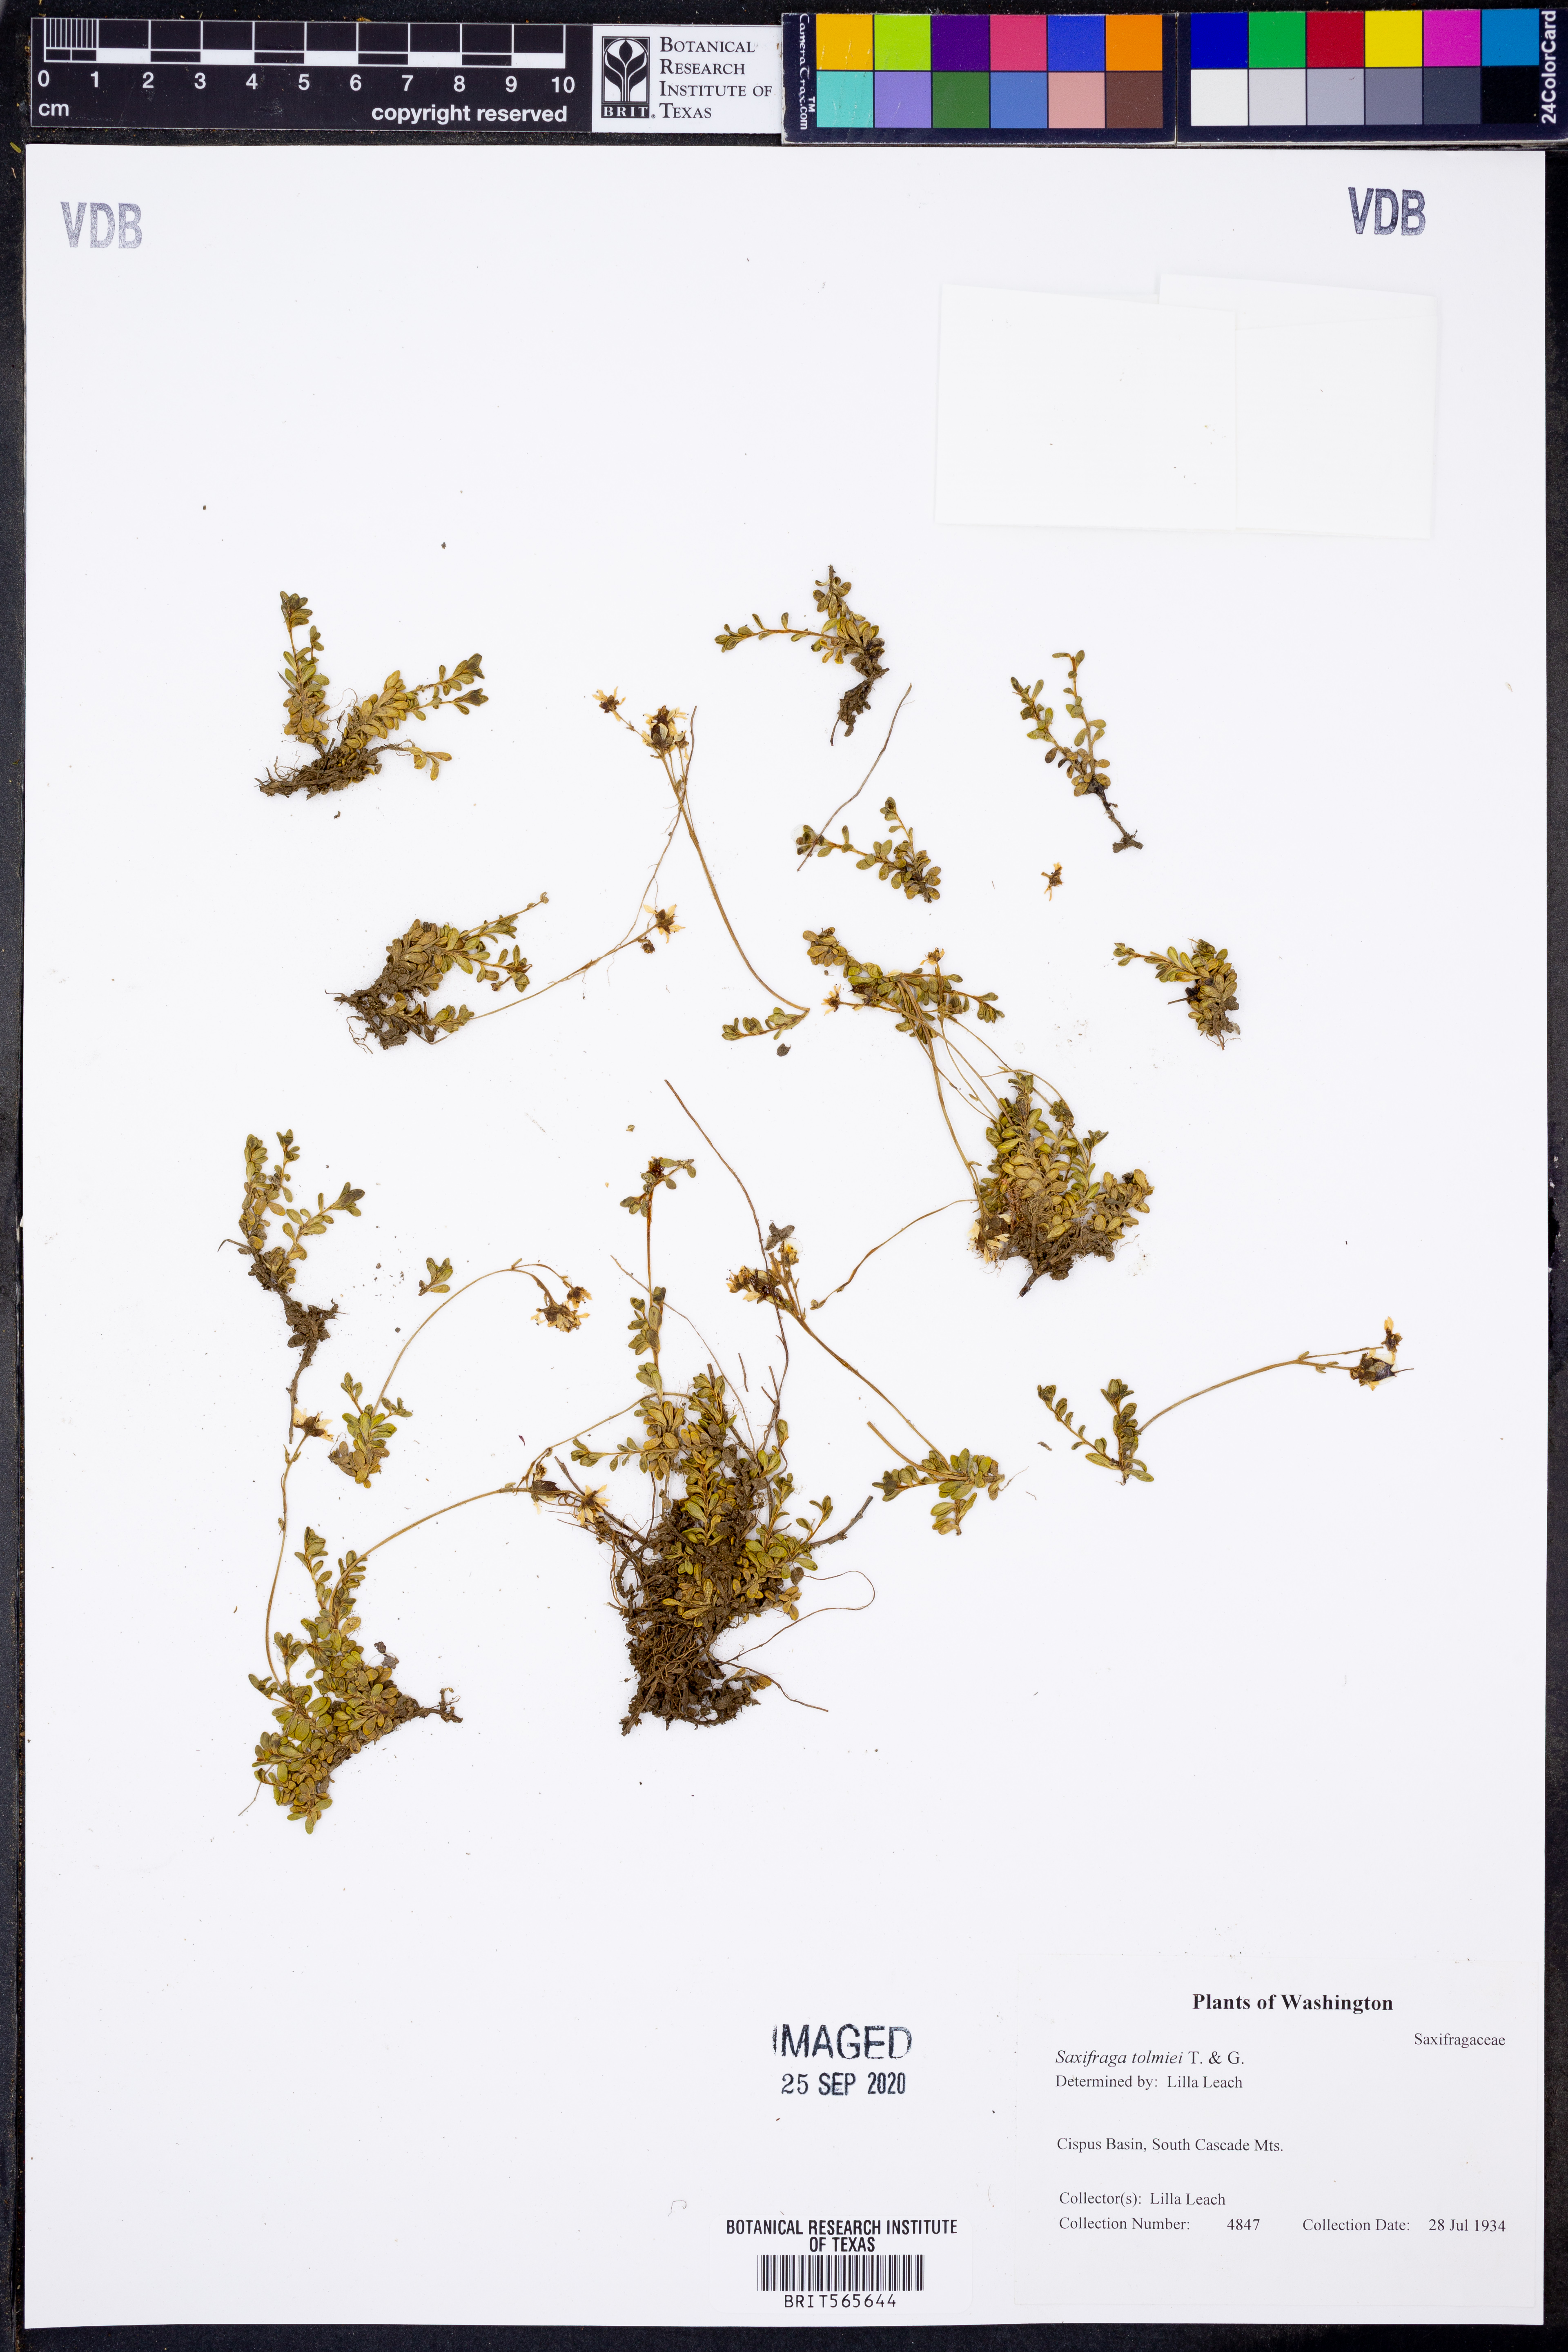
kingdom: Plantae
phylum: Tracheophyta
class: Magnoliopsida
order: Saxifragales
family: Saxifragaceae
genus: Micranthes
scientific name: Micranthes tolmiei
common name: Tolmie's saxifrage
